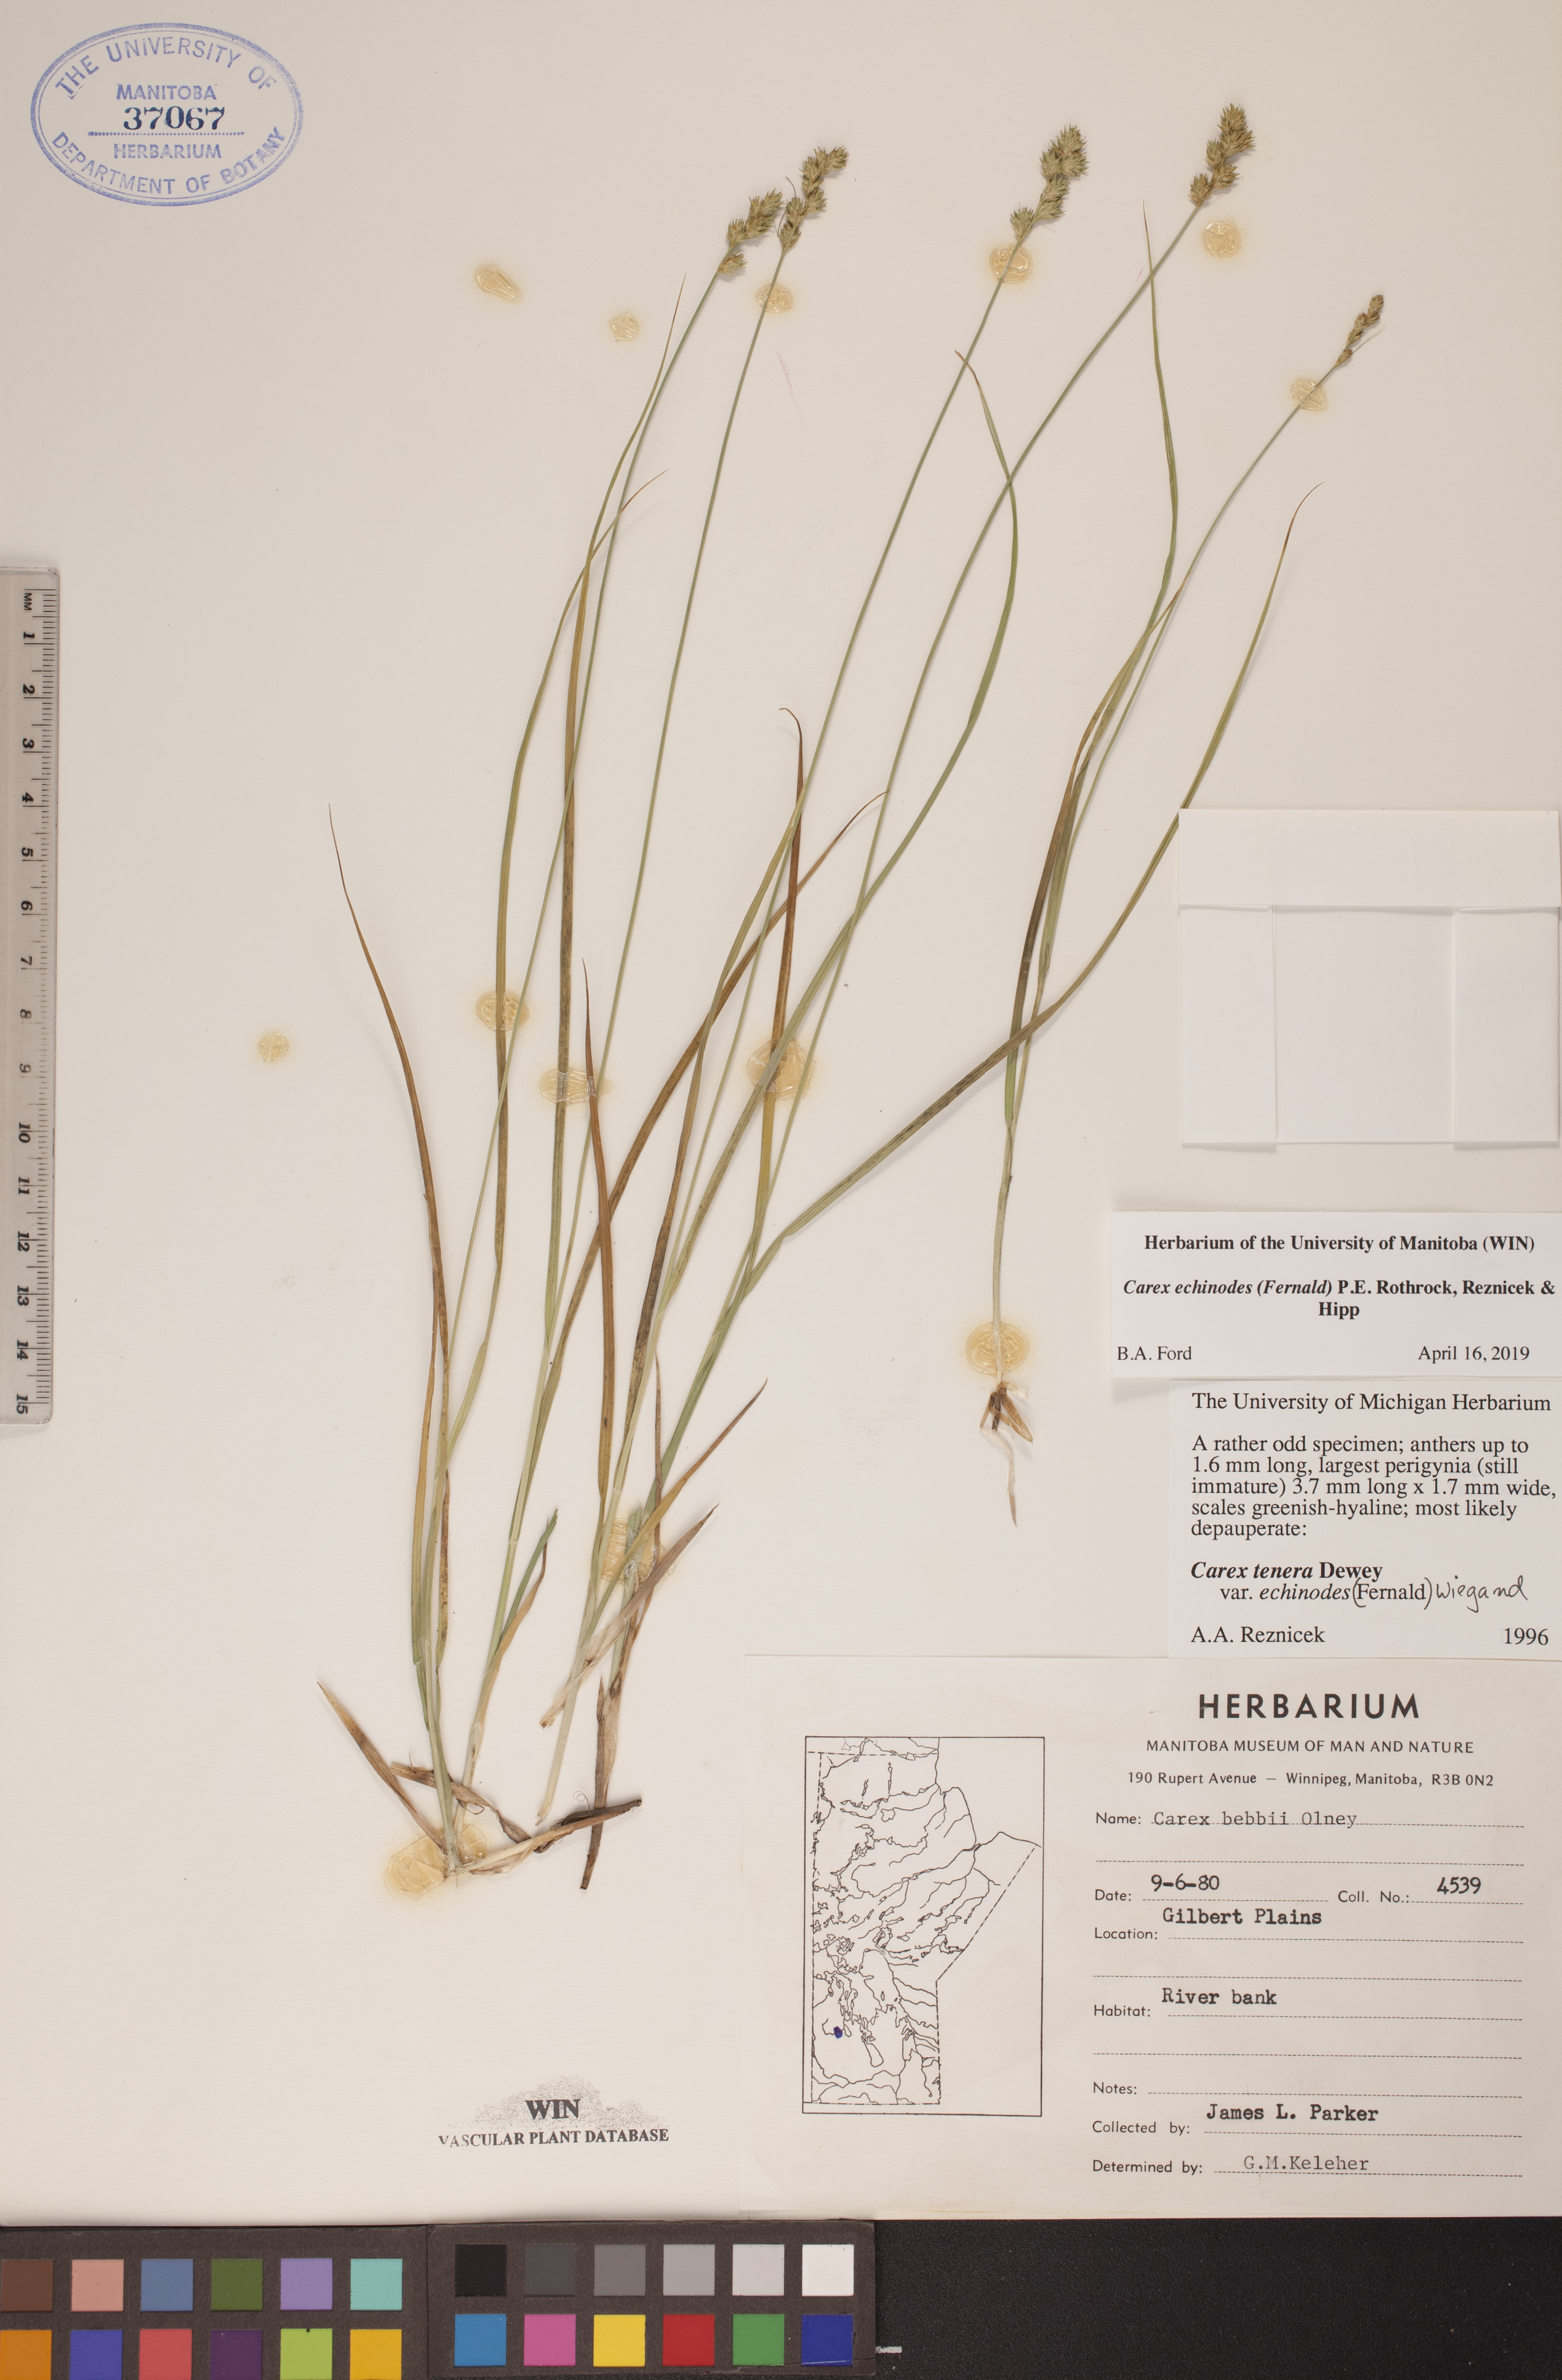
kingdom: Plantae
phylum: Tracheophyta
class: Liliopsida
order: Poales
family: Cyperaceae
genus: Carex
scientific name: Carex echinodes
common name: Marsh straw sedge
